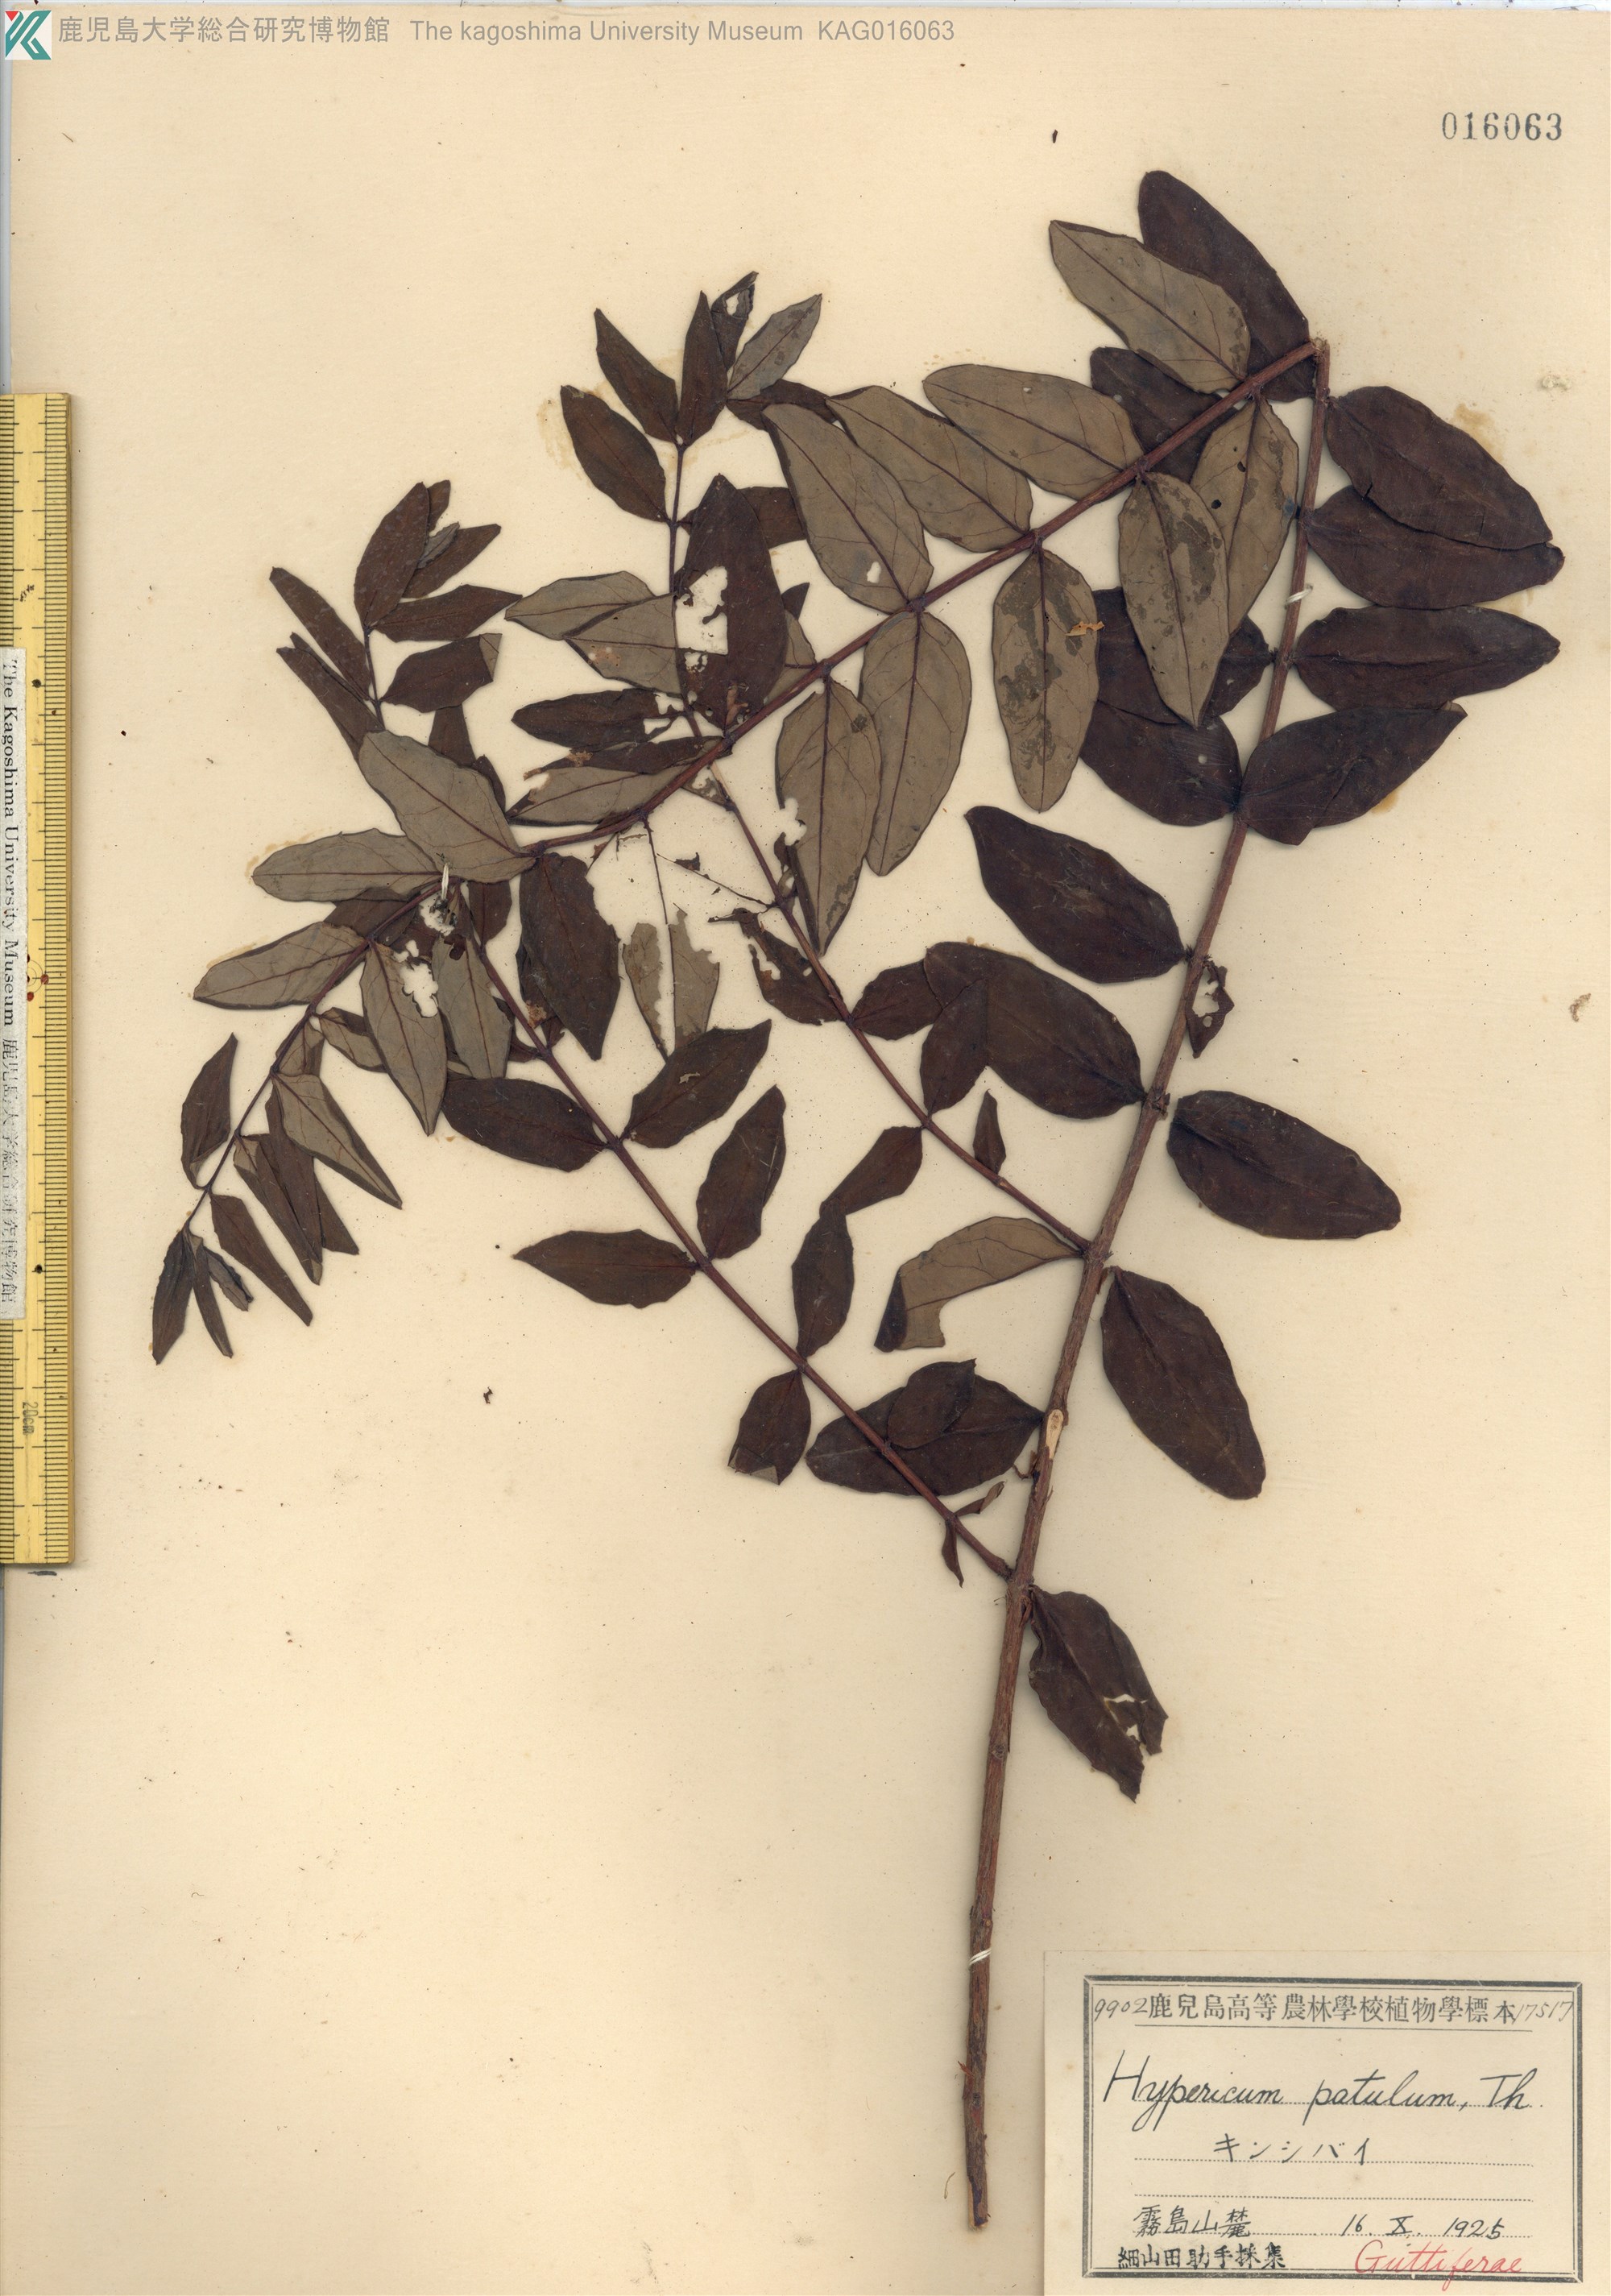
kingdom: Plantae
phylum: Tracheophyta
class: Magnoliopsida
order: Malpighiales
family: Hypericaceae
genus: Hypericum
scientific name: Hypericum patulum
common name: キンシバイ
